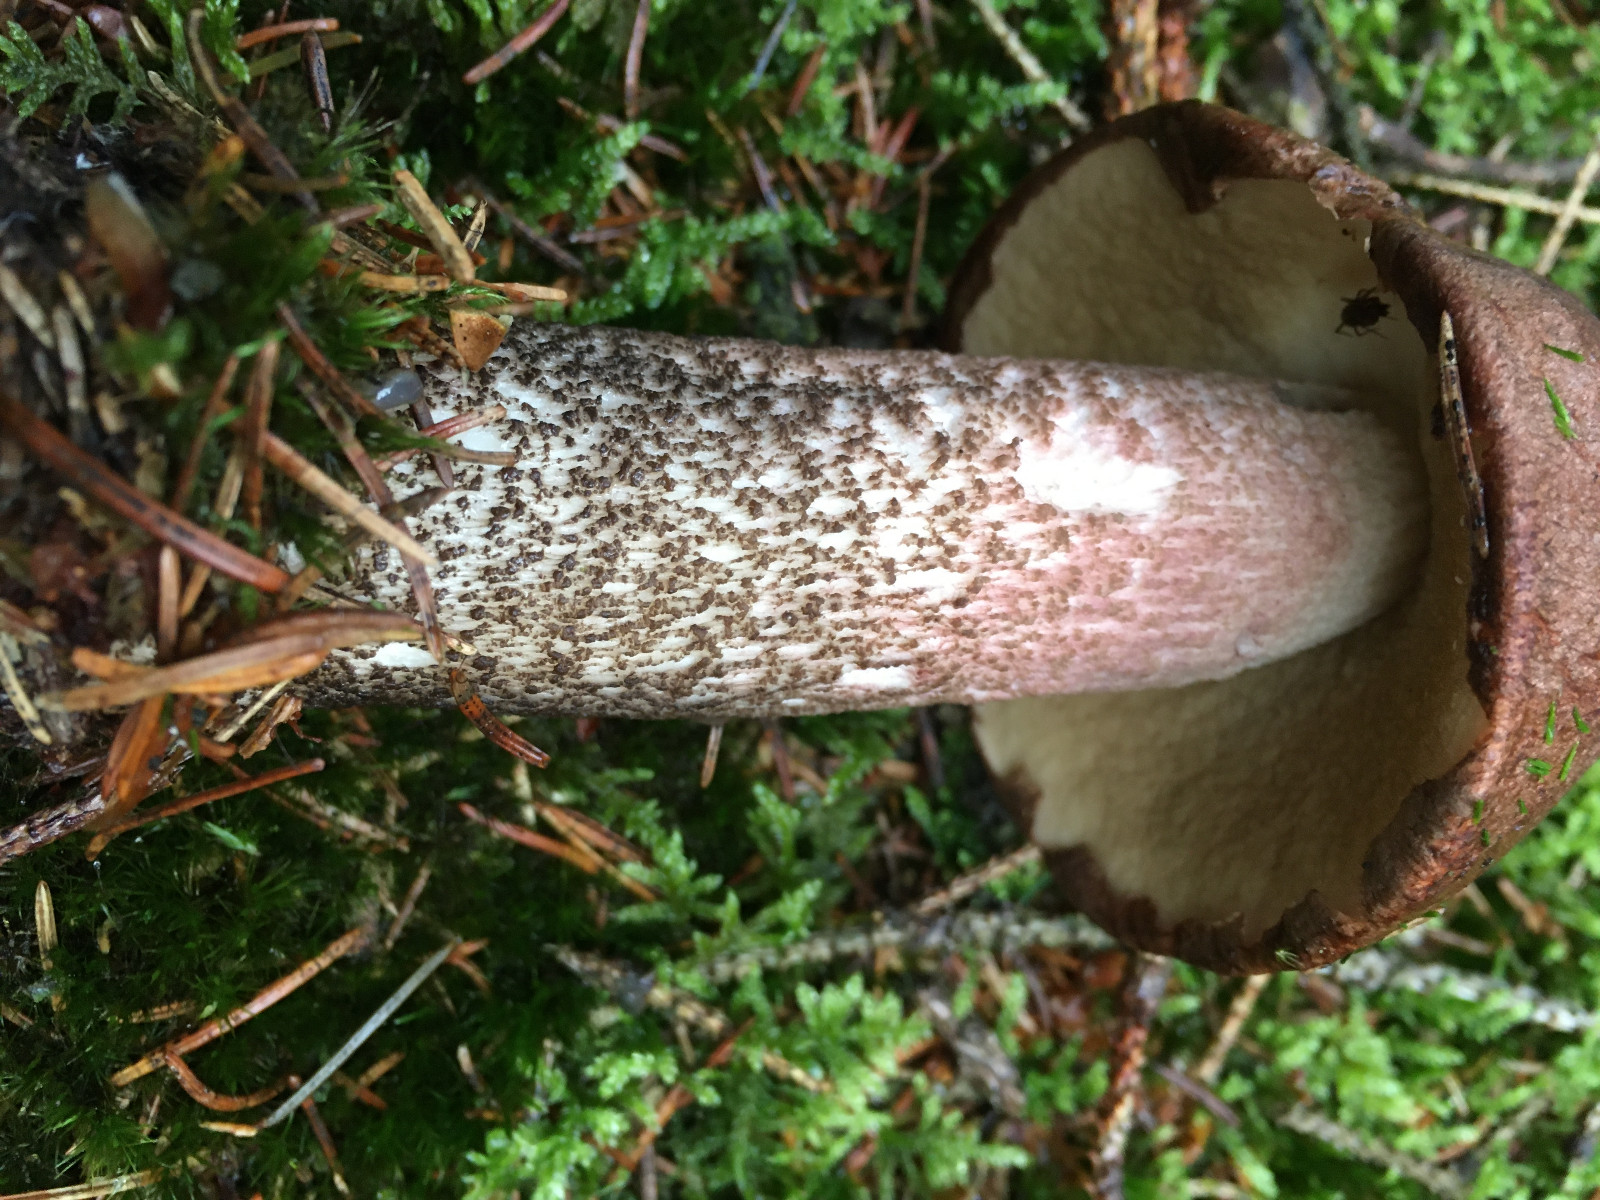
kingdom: Fungi
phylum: Basidiomycota
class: Agaricomycetes
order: Boletales
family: Boletaceae
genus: Leccinum
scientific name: Leccinum vulpinum
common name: fyrre-skælrørhat
